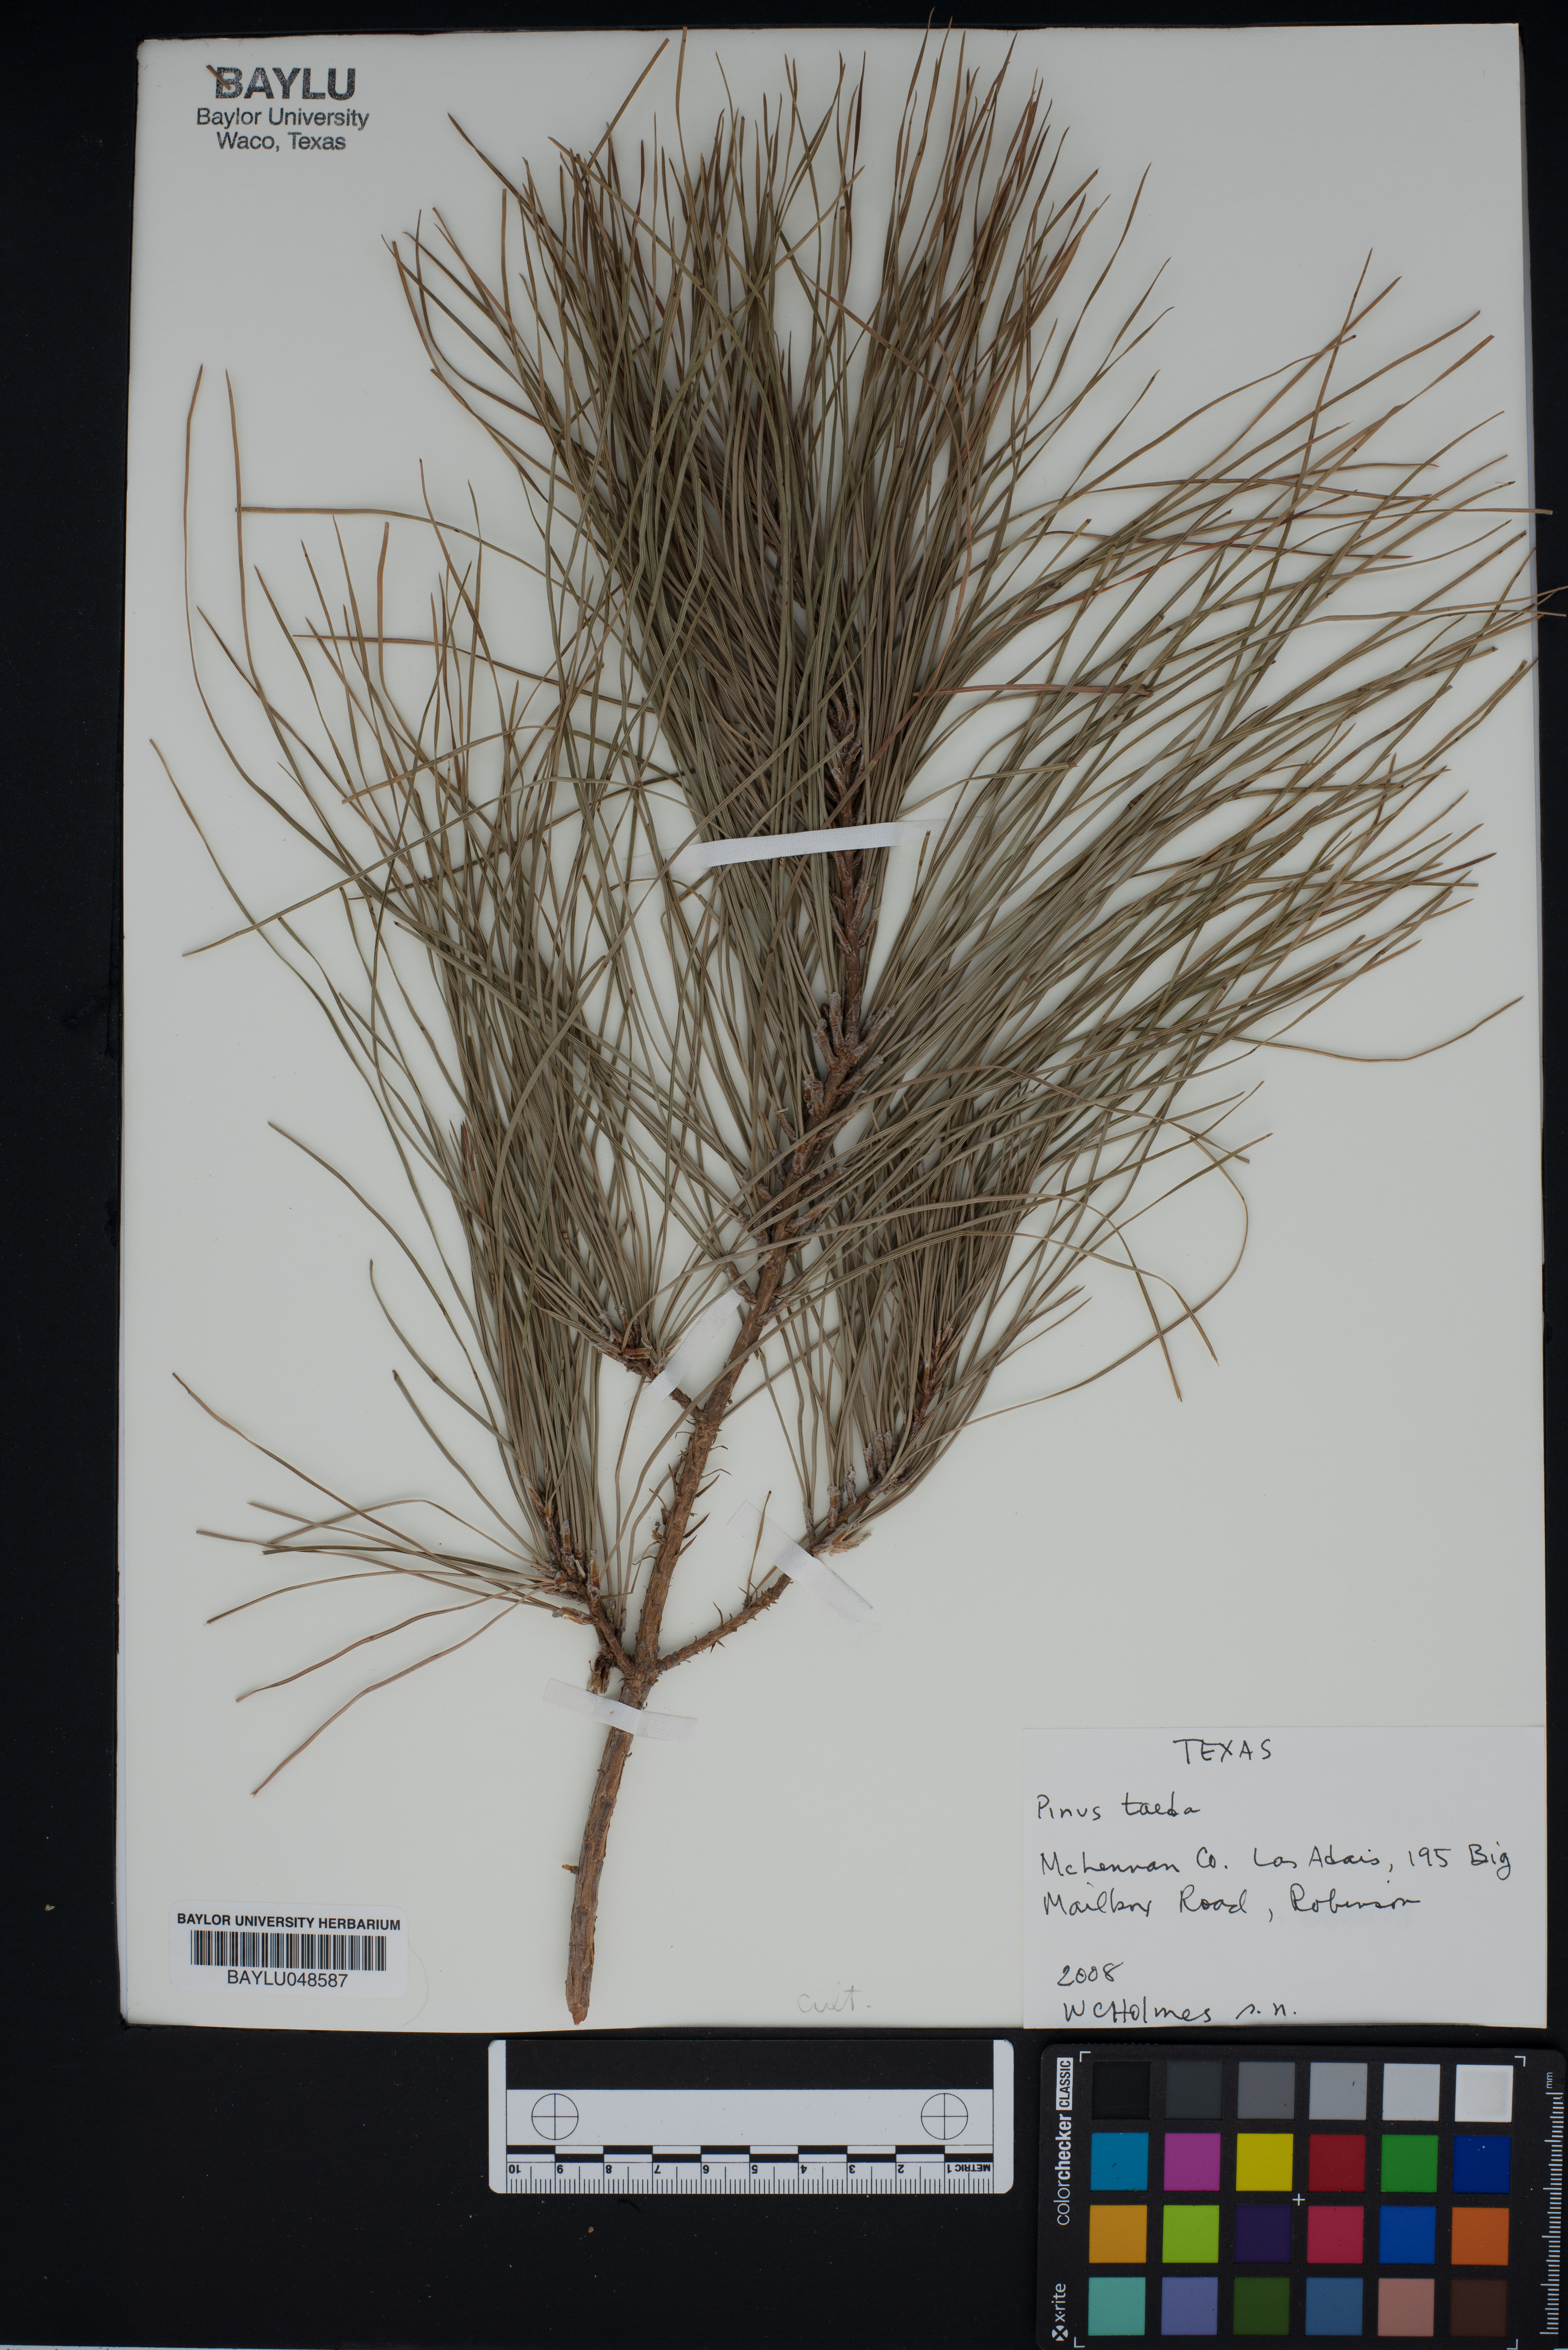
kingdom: Plantae
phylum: Tracheophyta
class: Pinopsida
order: Pinales
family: Pinaceae
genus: Pinus
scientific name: Pinus taeda
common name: Loblolly pine
